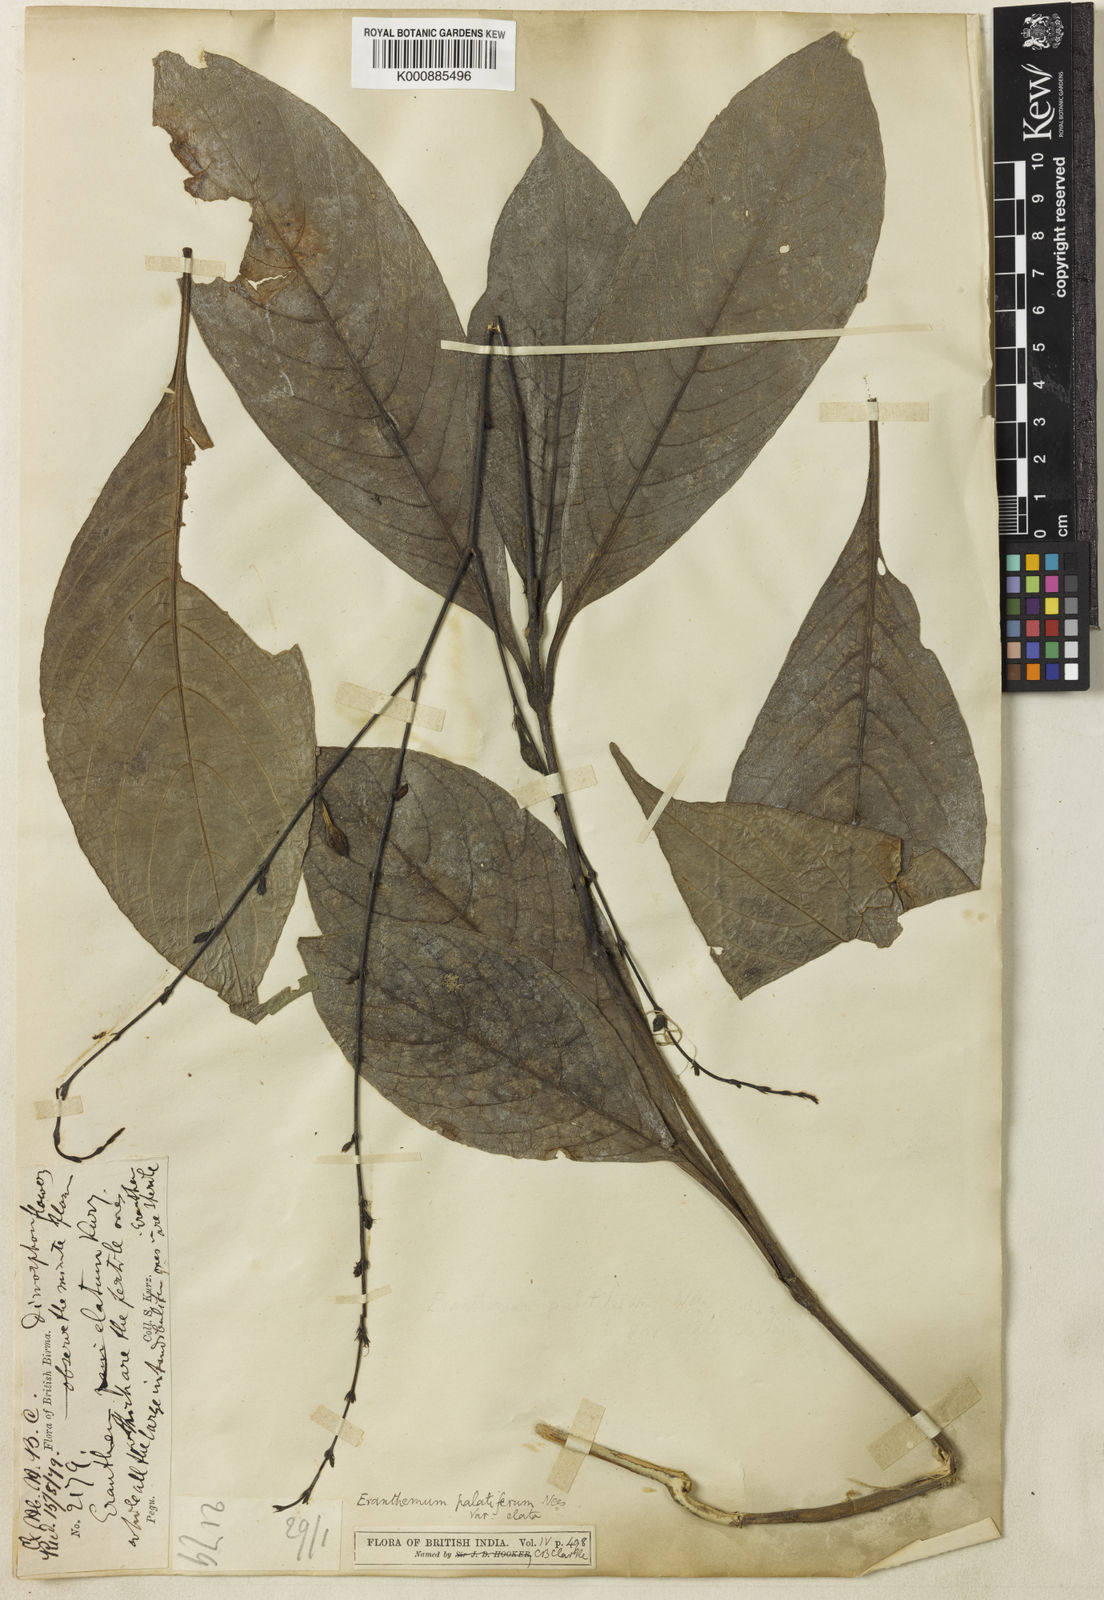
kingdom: Plantae
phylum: Tracheophyta
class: Magnoliopsida
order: Lamiales
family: Acanthaceae
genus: Pseuderanthemum
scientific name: Pseuderanthemum
